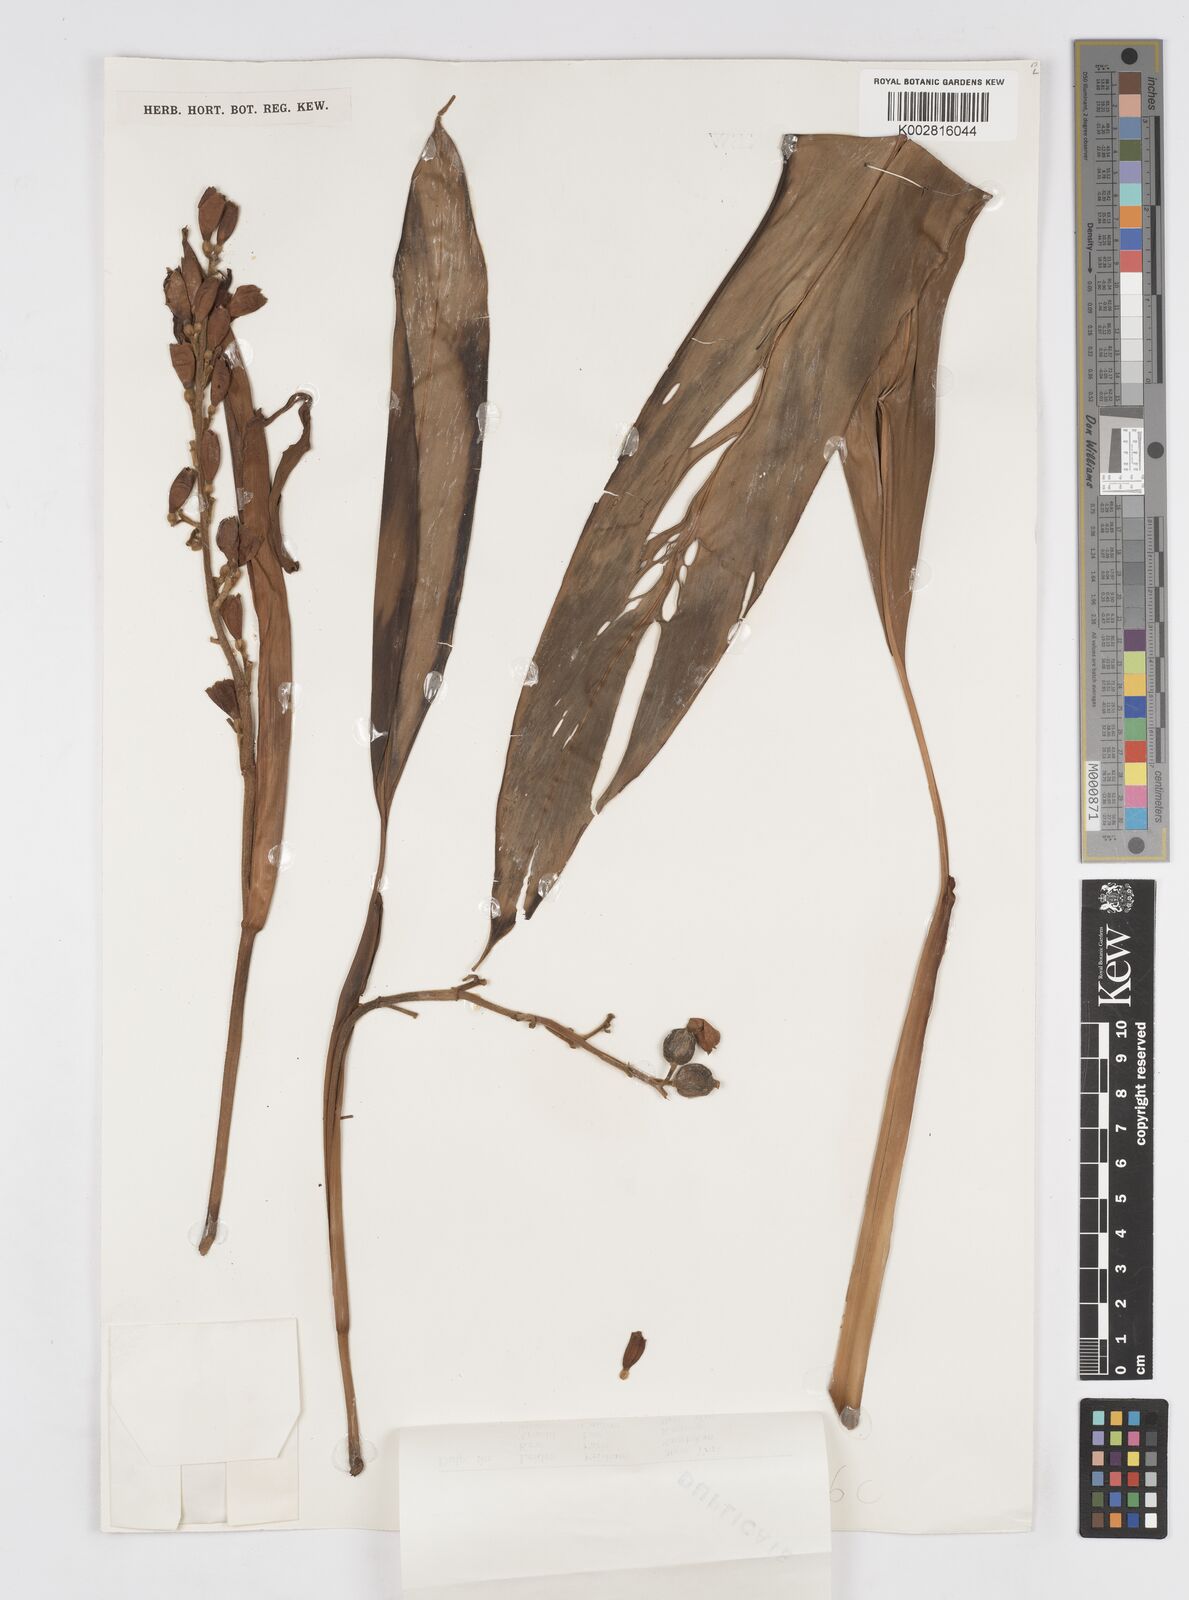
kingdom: Plantae
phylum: Tracheophyta
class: Liliopsida
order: Zingiberales
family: Zingiberaceae
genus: Alpinia
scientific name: Alpinia
